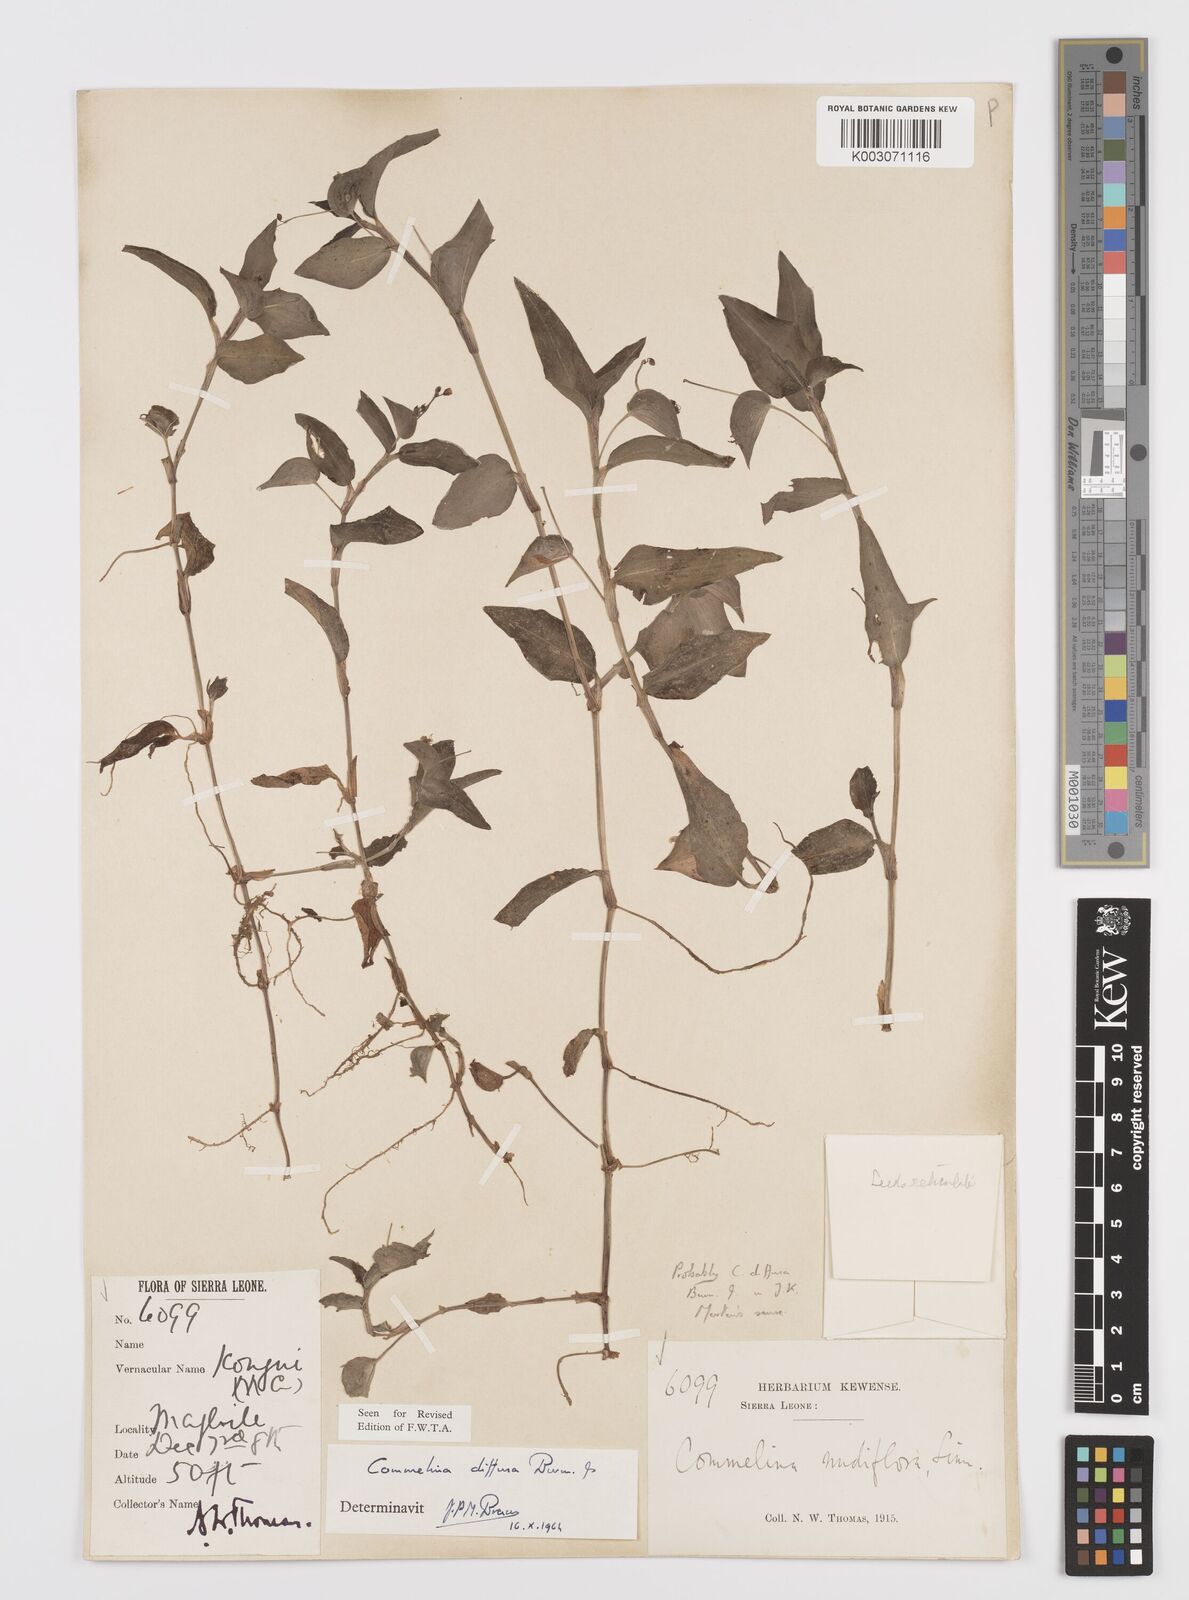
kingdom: Plantae
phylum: Tracheophyta
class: Liliopsida
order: Commelinales
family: Commelinaceae
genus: Commelina
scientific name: Commelina diffusa
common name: Climbing dayflower
